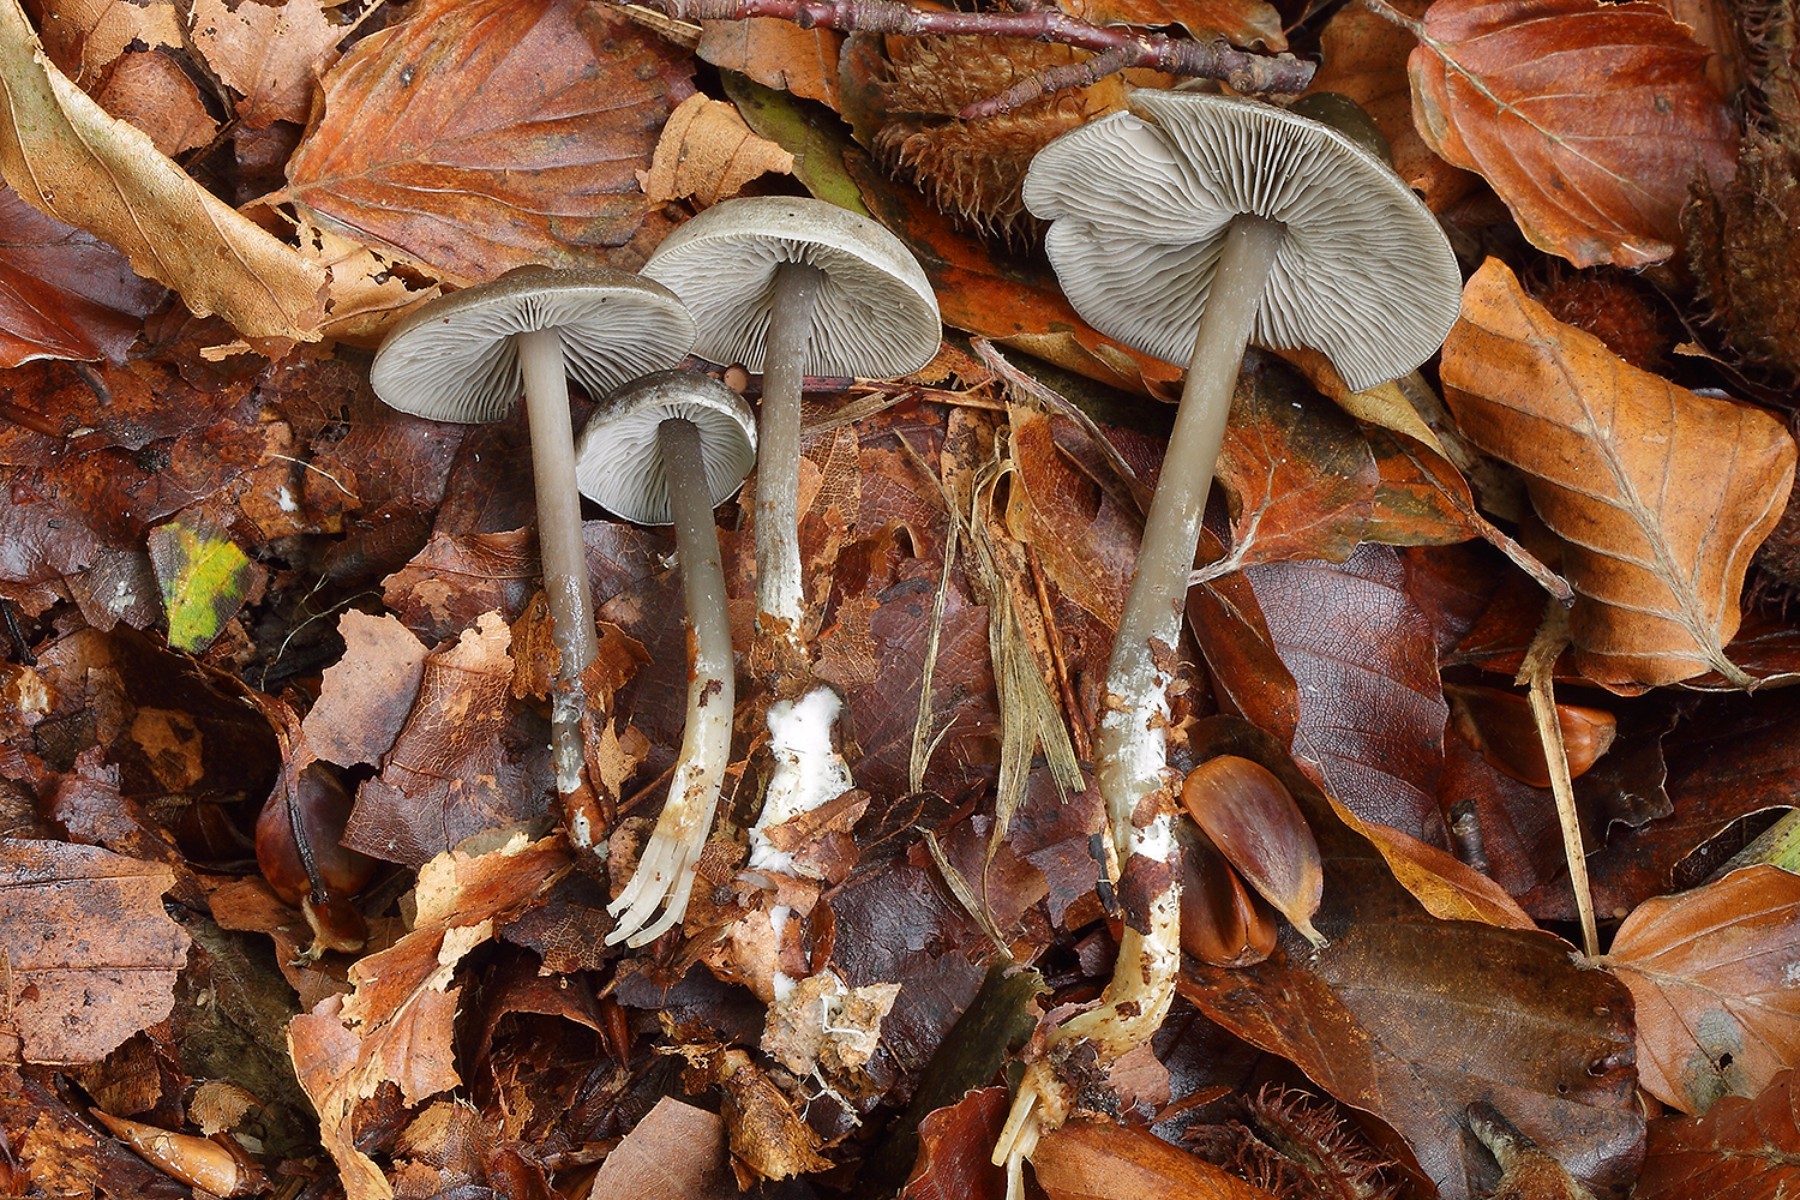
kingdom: Fungi
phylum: Basidiomycota
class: Agaricomycetes
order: Agaricales
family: Lyophyllaceae
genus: Tephrocybe
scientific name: Tephrocybe rancida
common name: mel-gråblad
